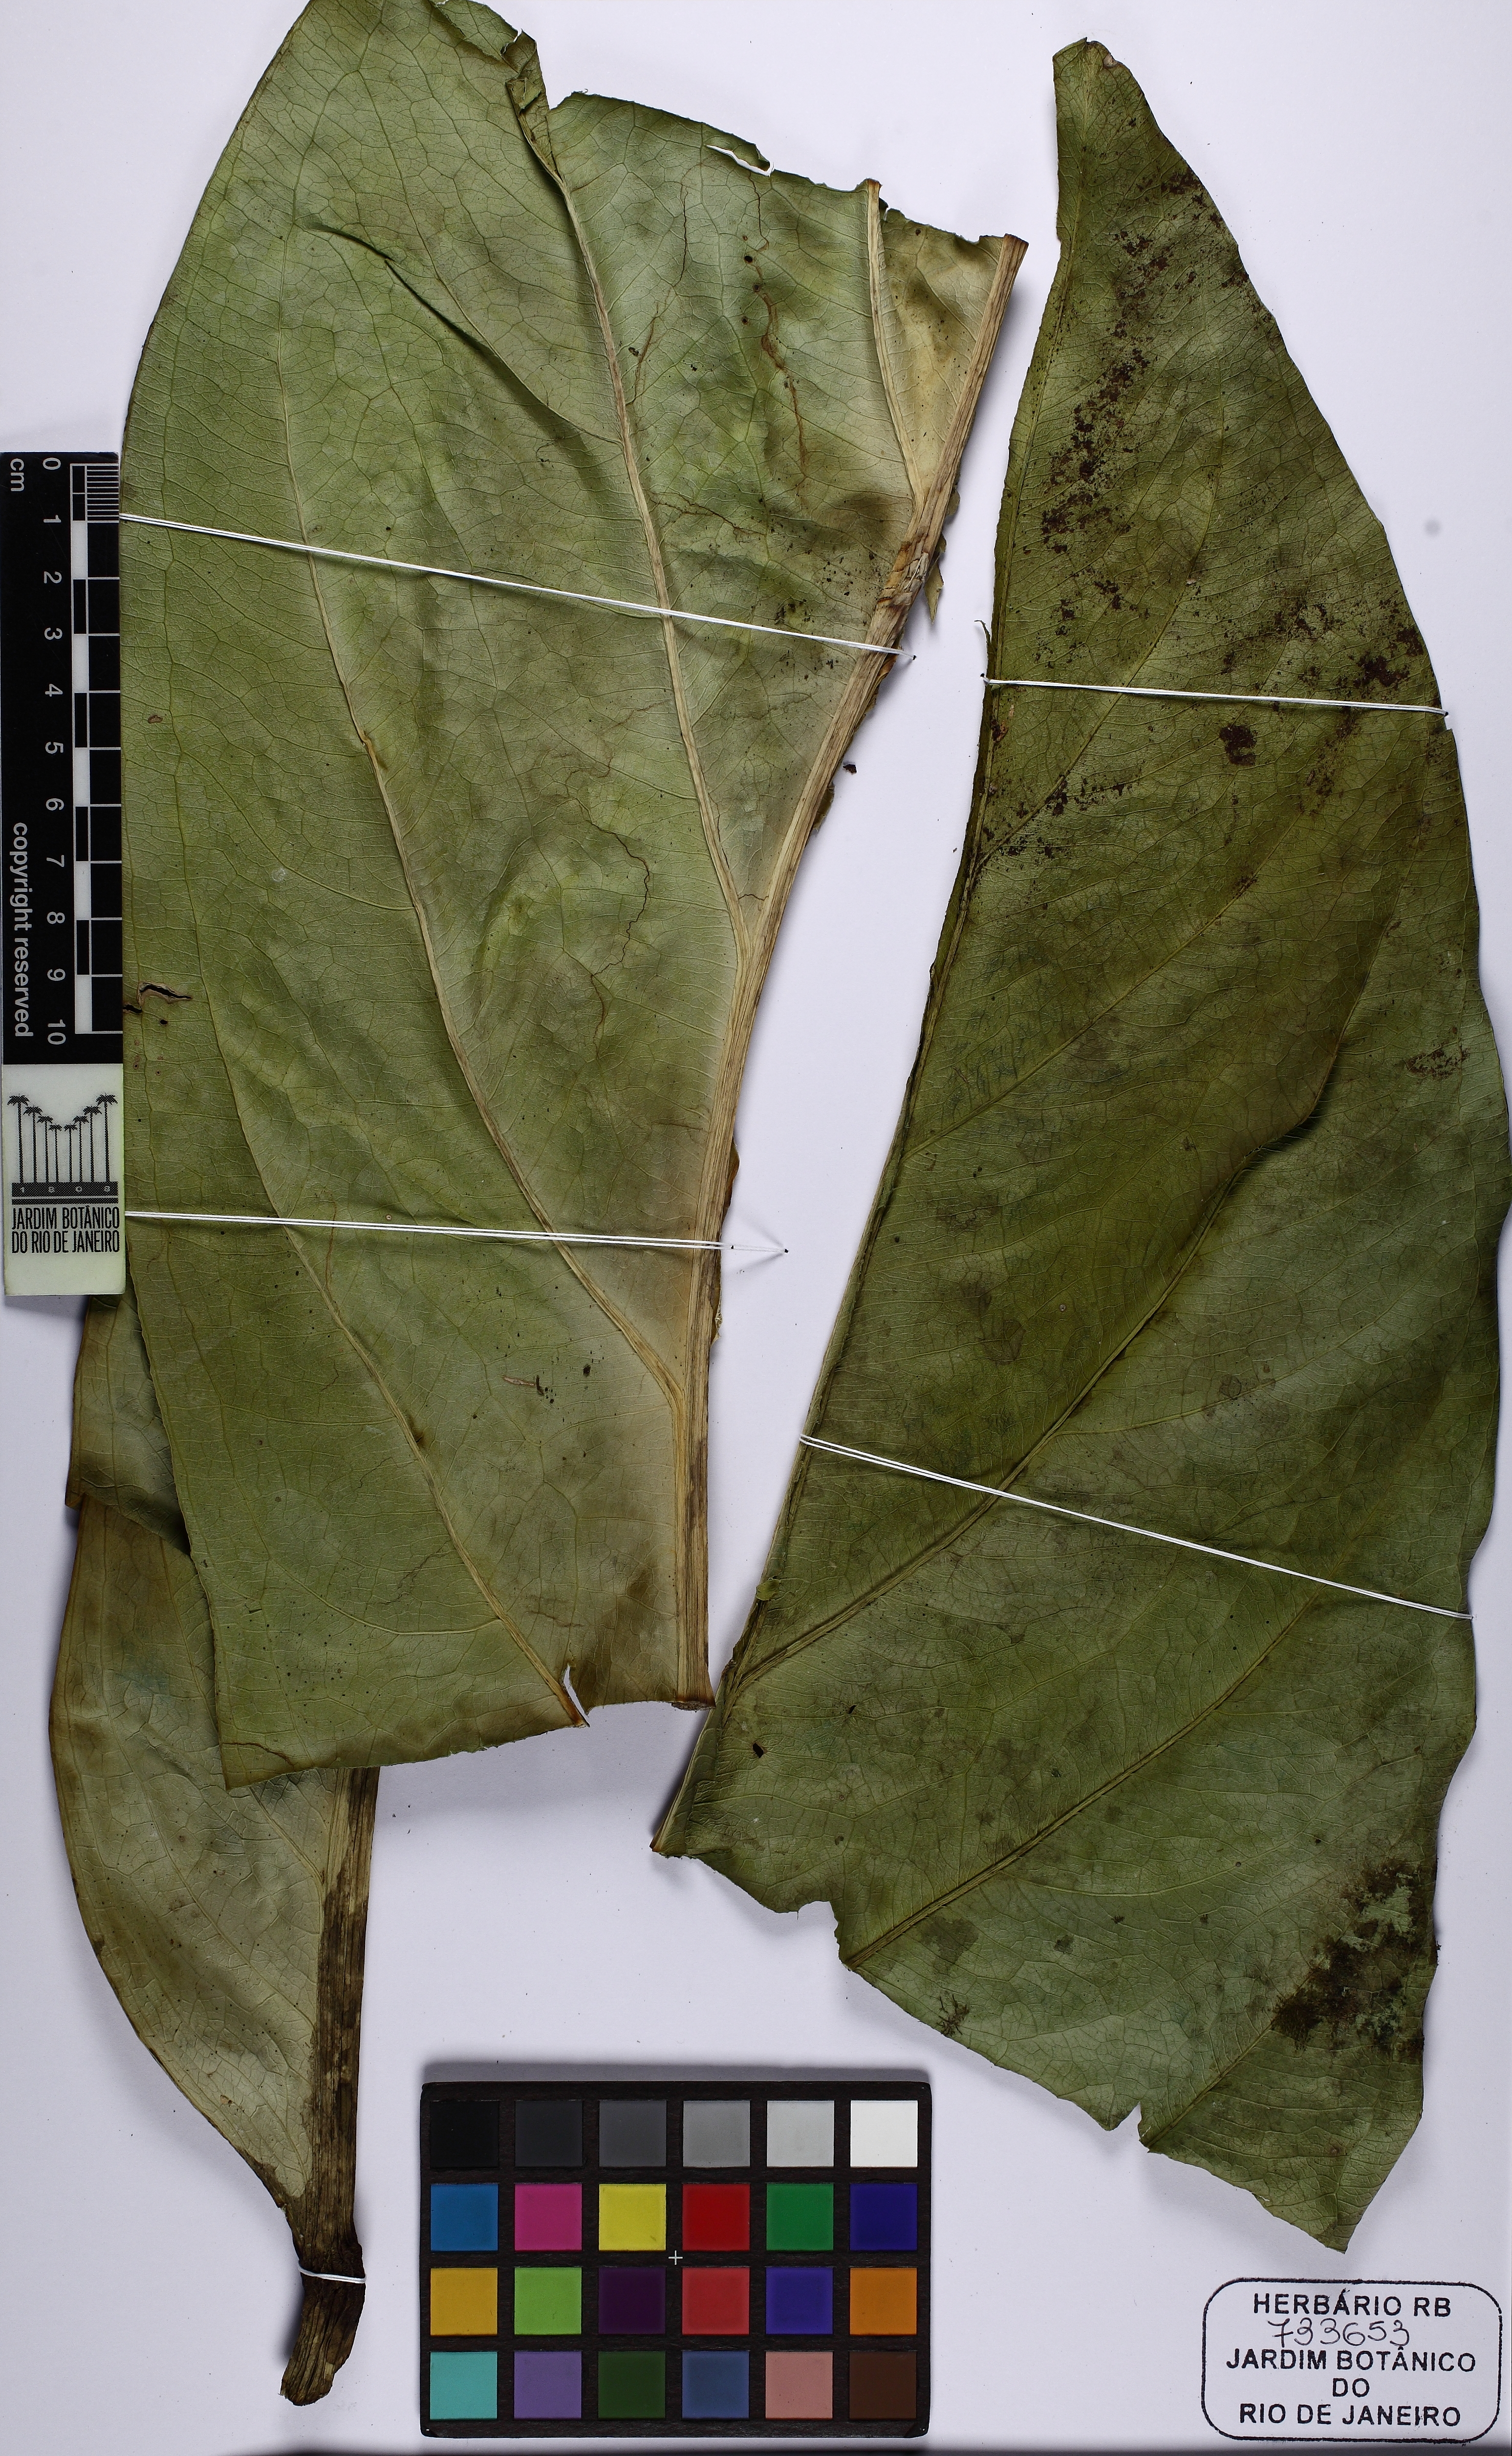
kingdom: Plantae
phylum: Tracheophyta
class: Liliopsida
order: Alismatales
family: Araceae
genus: Anthurium
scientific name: Anthurium solitarium
